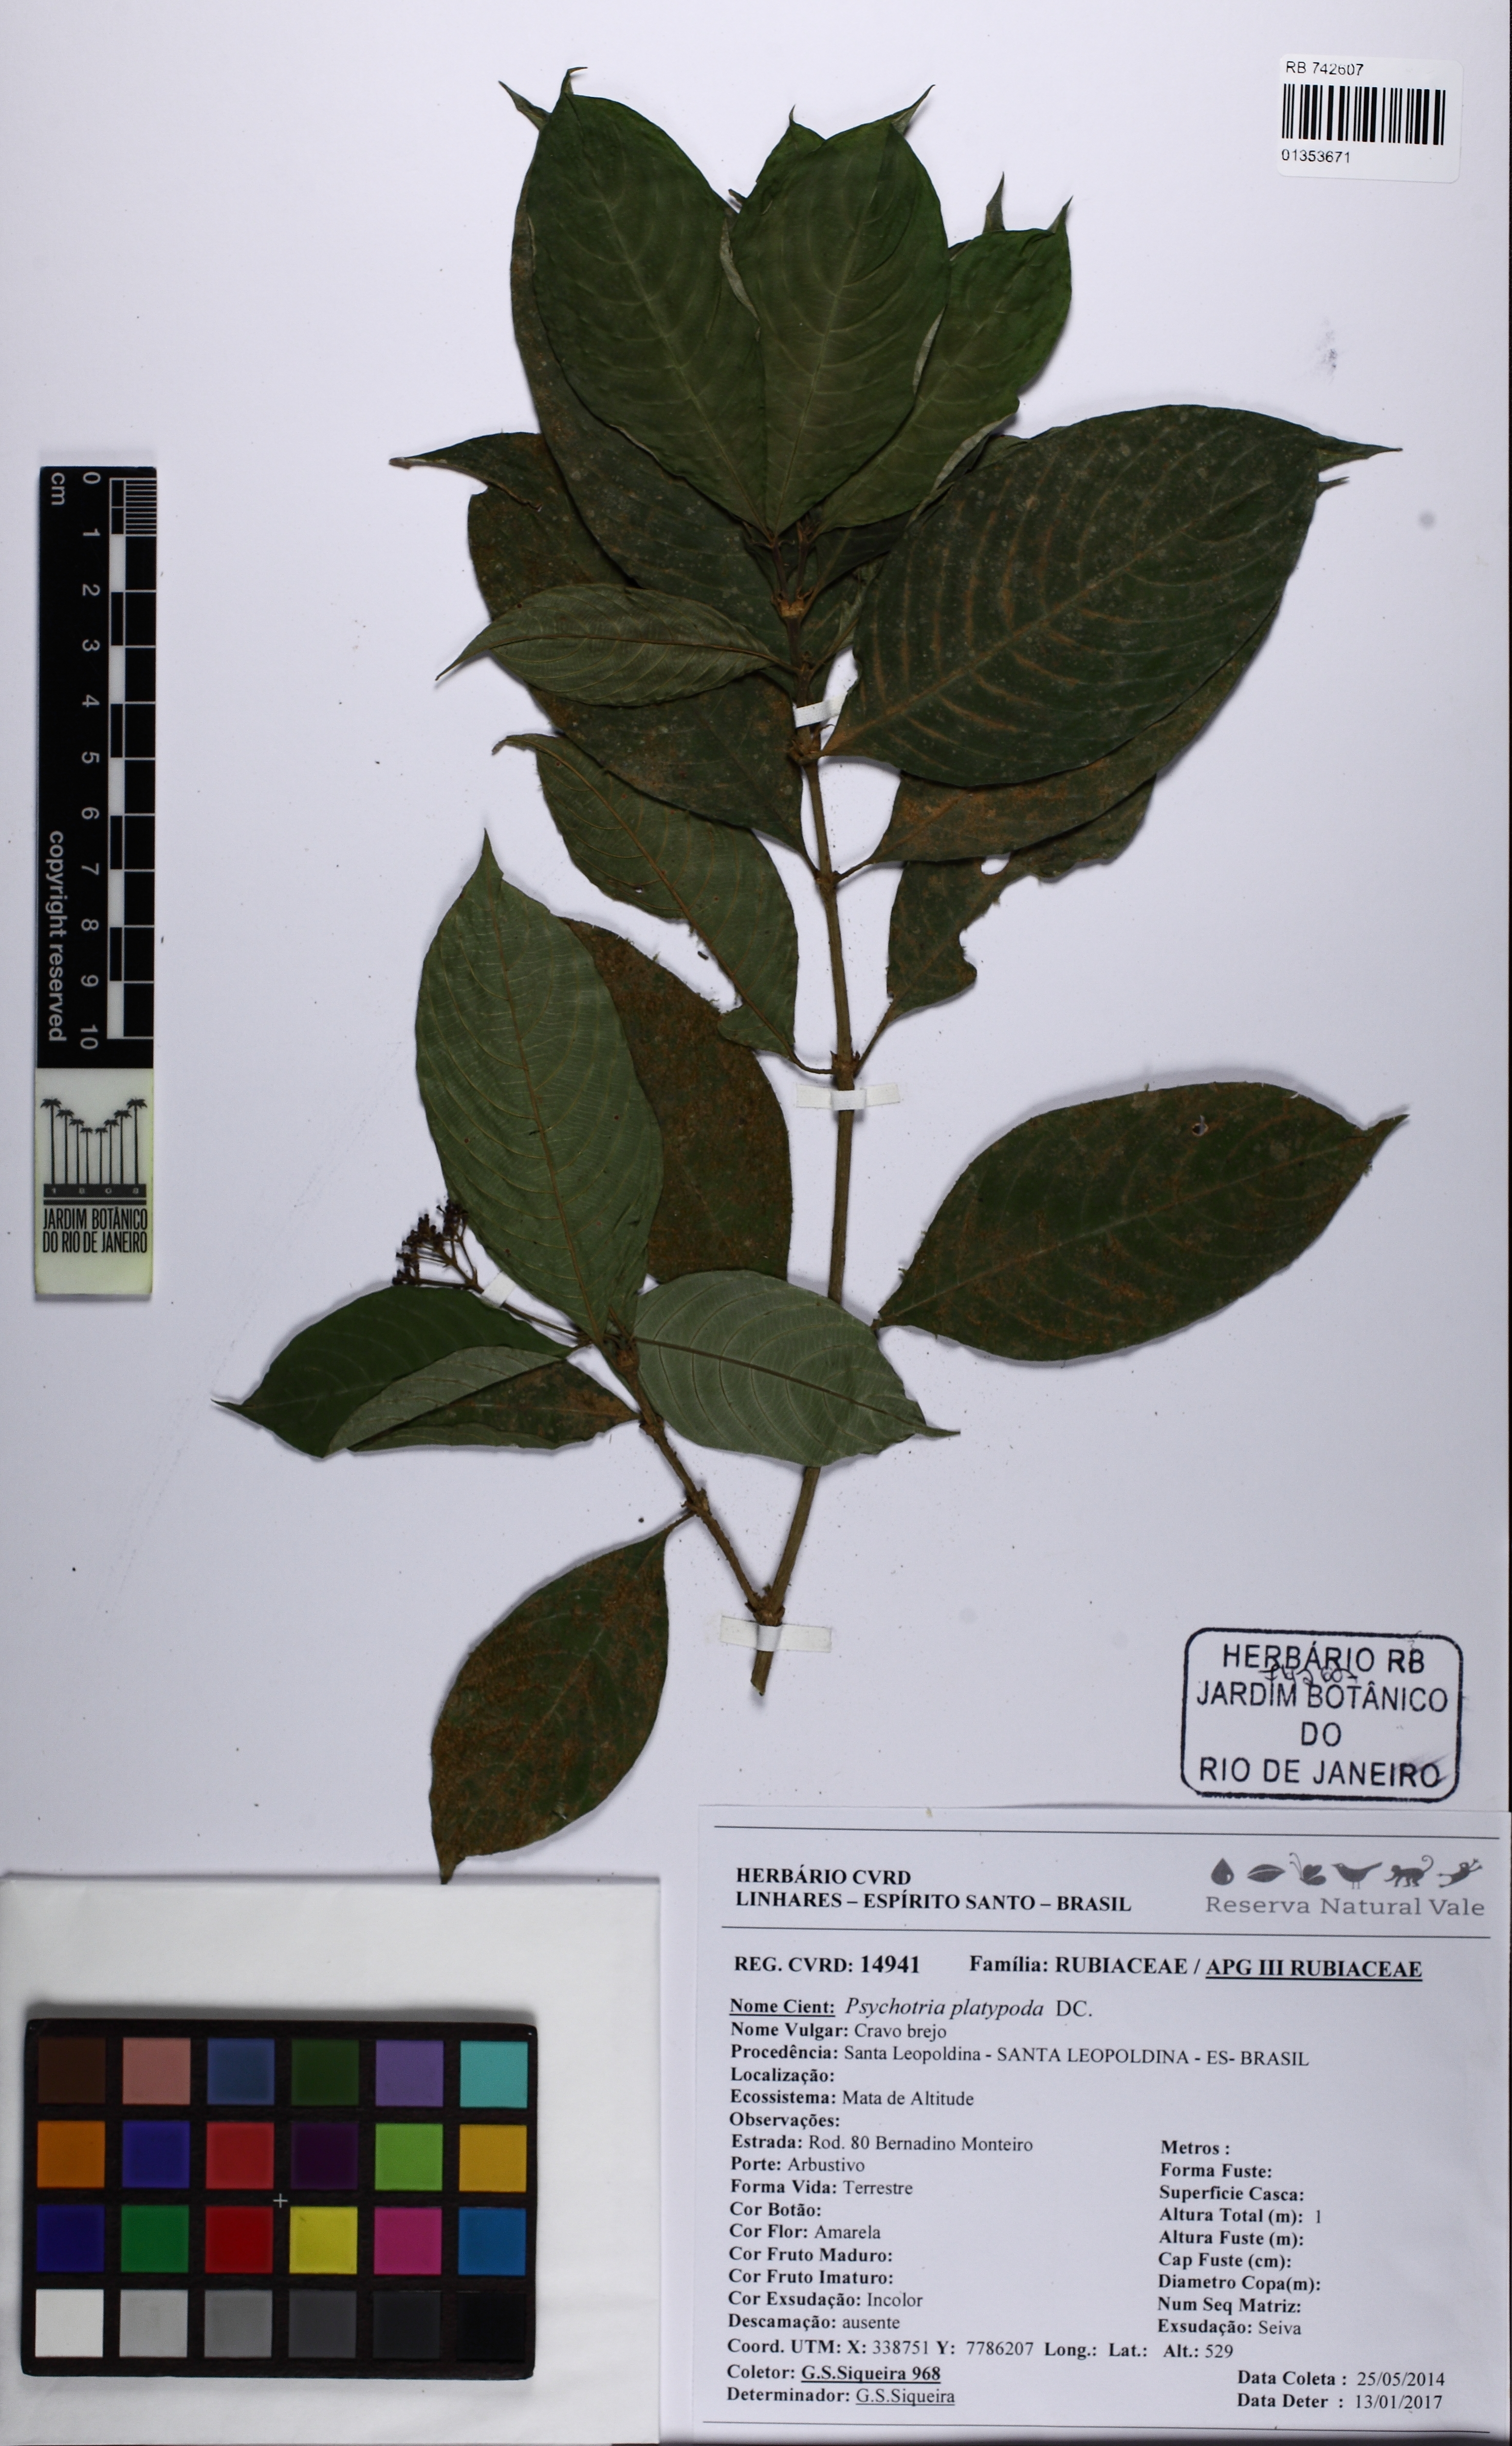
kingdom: Plantae
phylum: Tracheophyta
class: Magnoliopsida
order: Gentianales
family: Rubiaceae
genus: Palicourea
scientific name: Palicourea dichotoma
